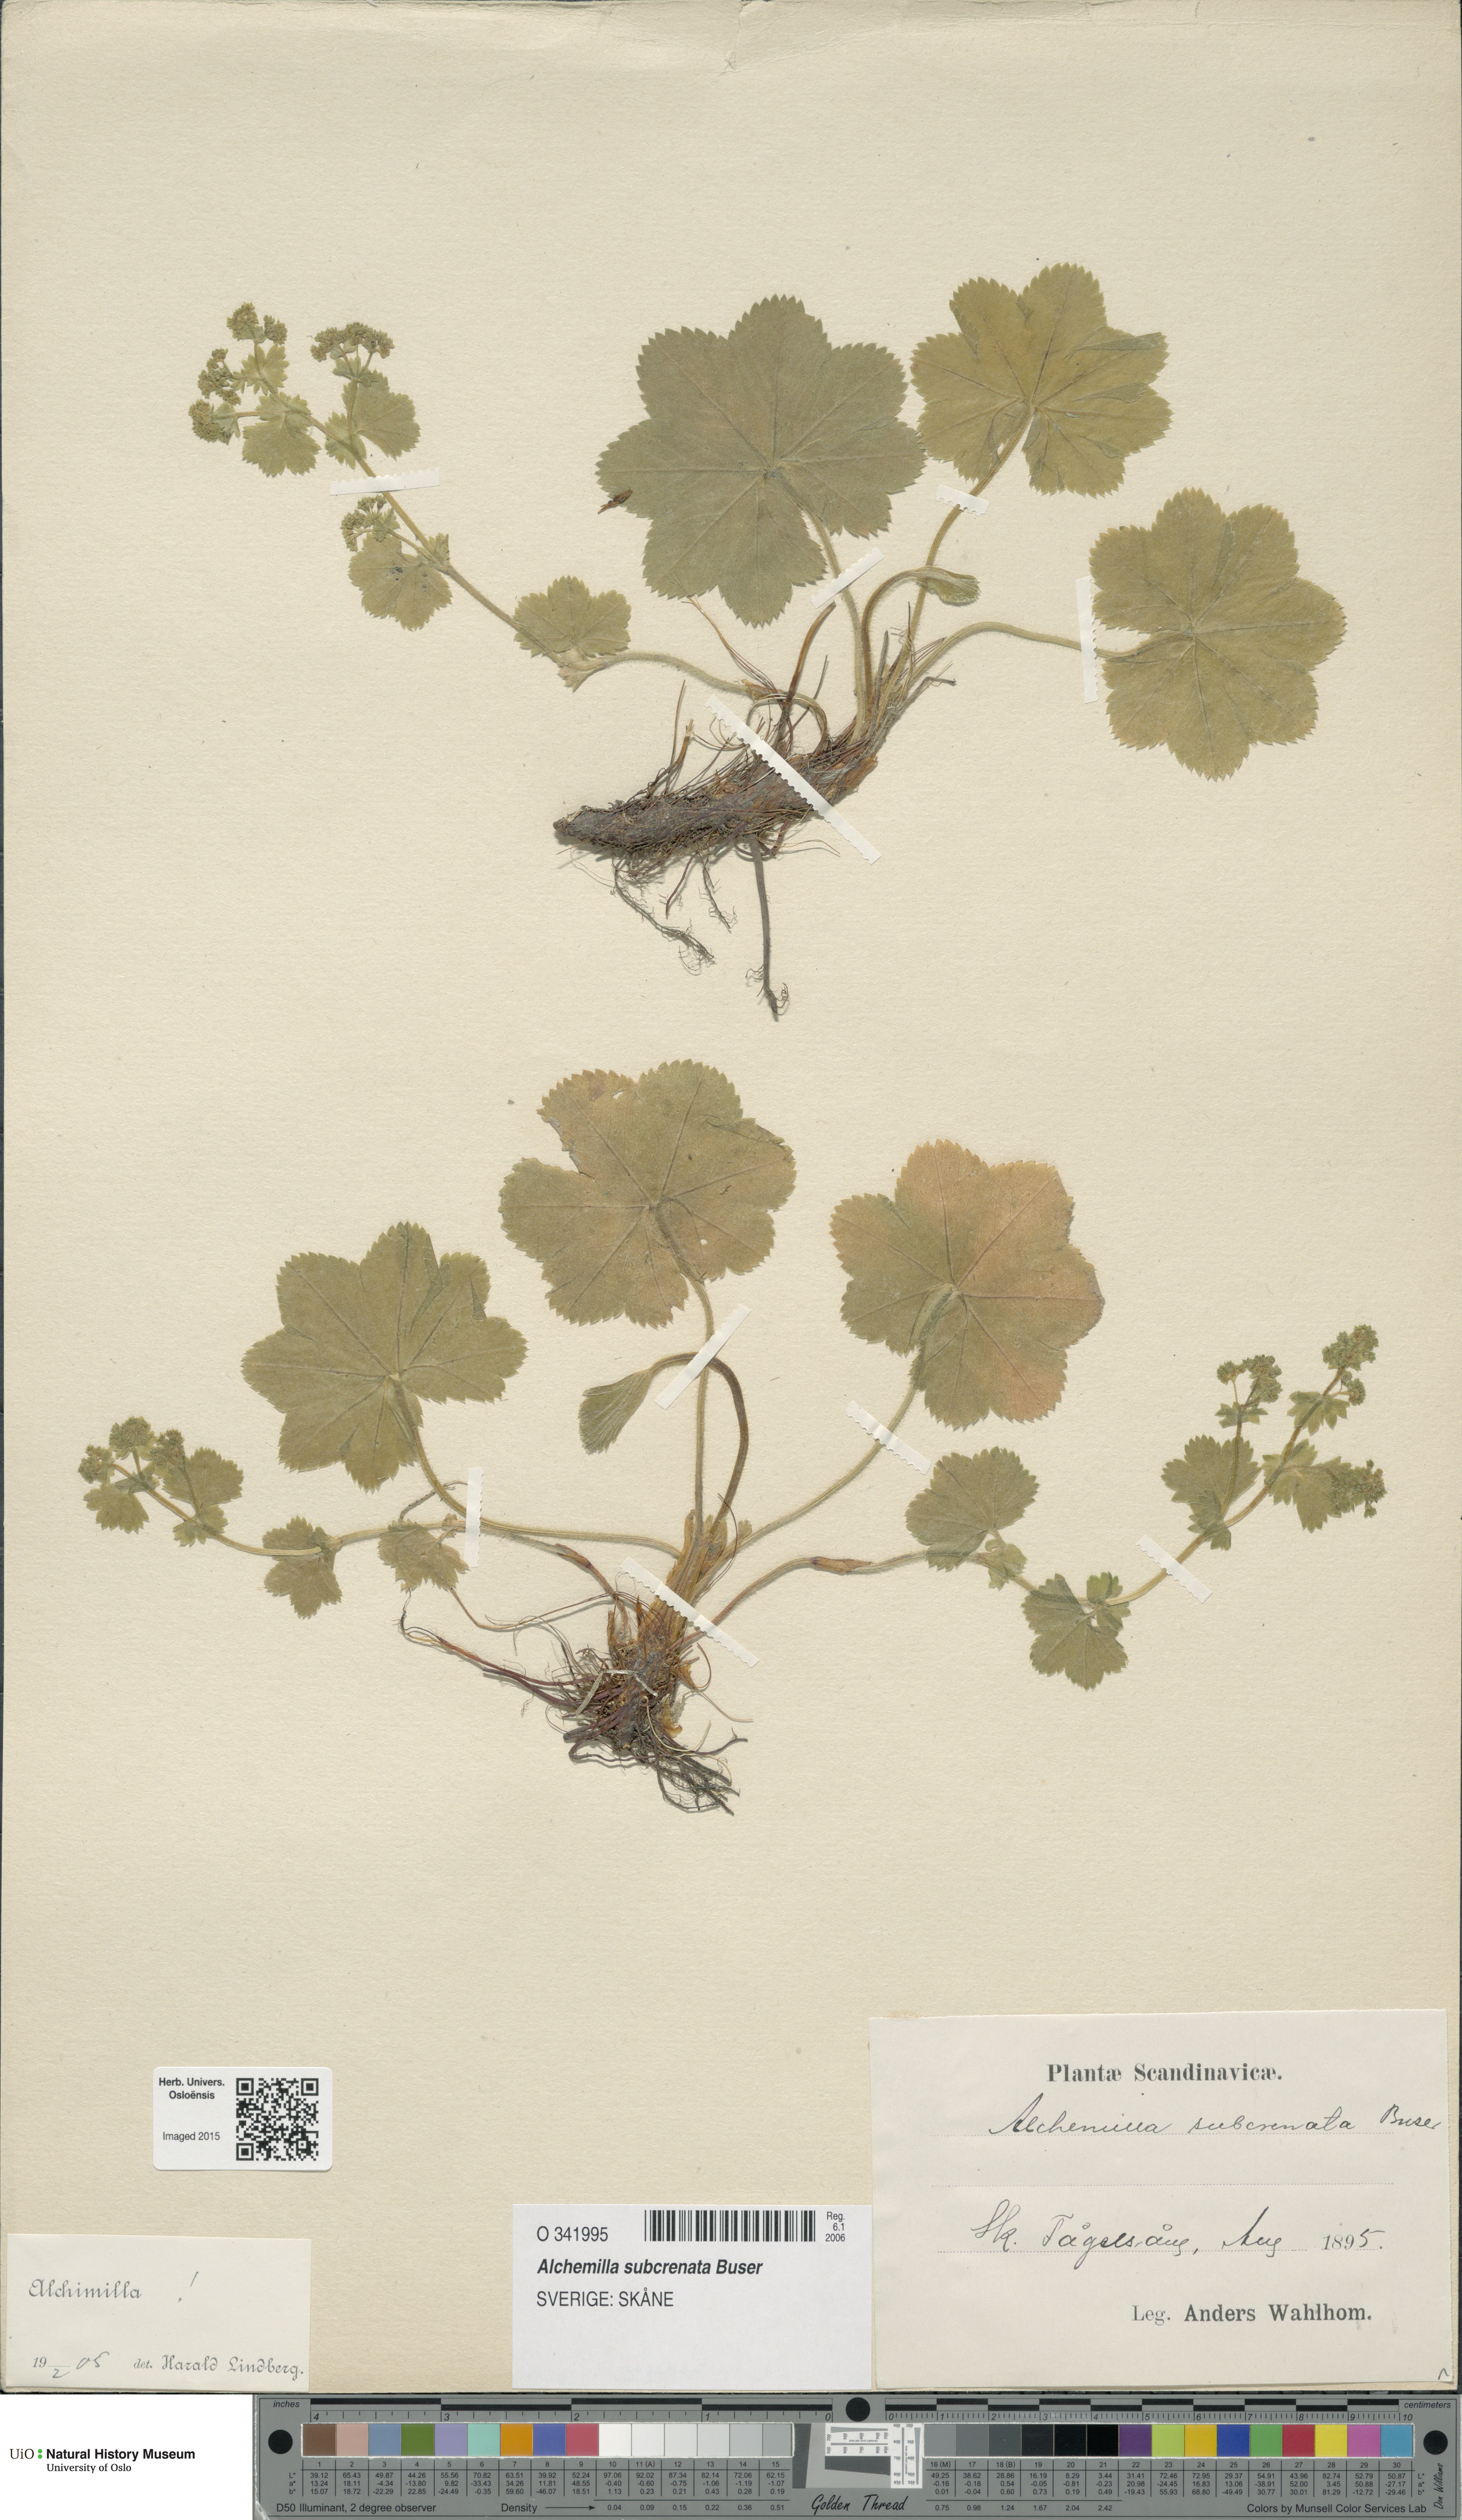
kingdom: Plantae
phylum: Tracheophyta
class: Magnoliopsida
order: Rosales
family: Rosaceae
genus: Alchemilla
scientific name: Alchemilla subcrenata
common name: Broadtooth lady's mantle
